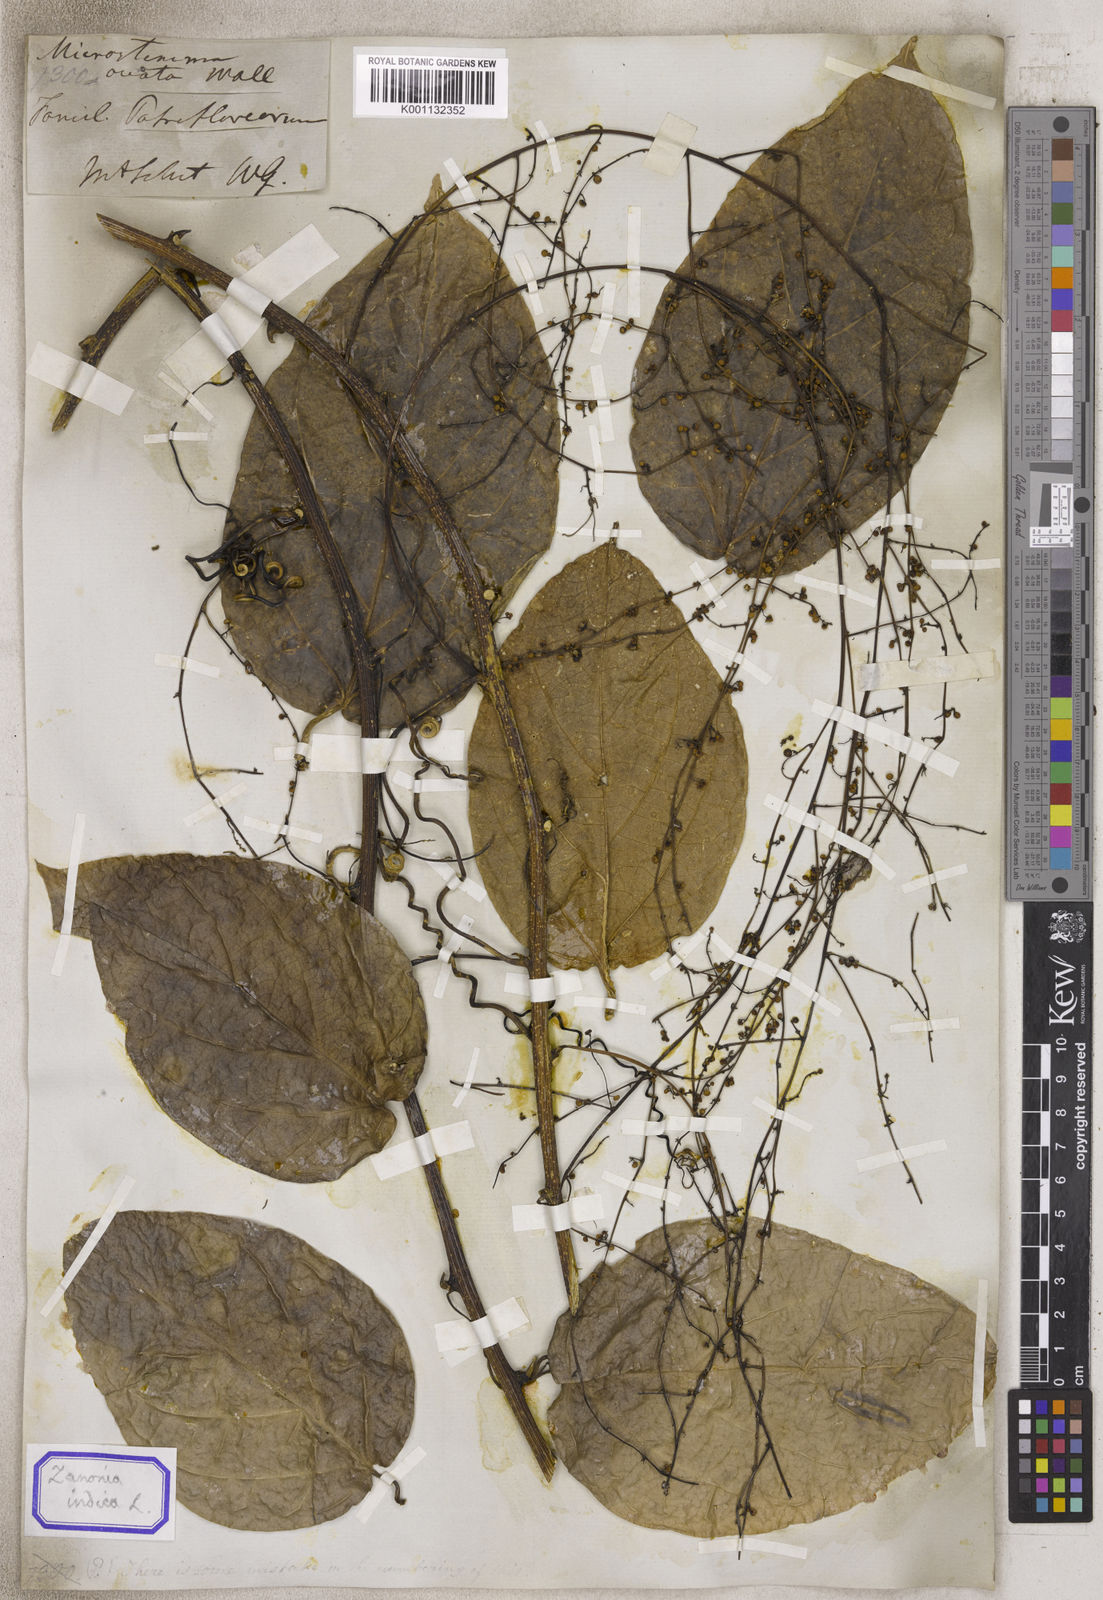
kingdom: Plantae
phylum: Tracheophyta
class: Magnoliopsida
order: Cucurbitales
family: Cucurbitaceae
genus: Zanonia
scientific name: Zanonia
